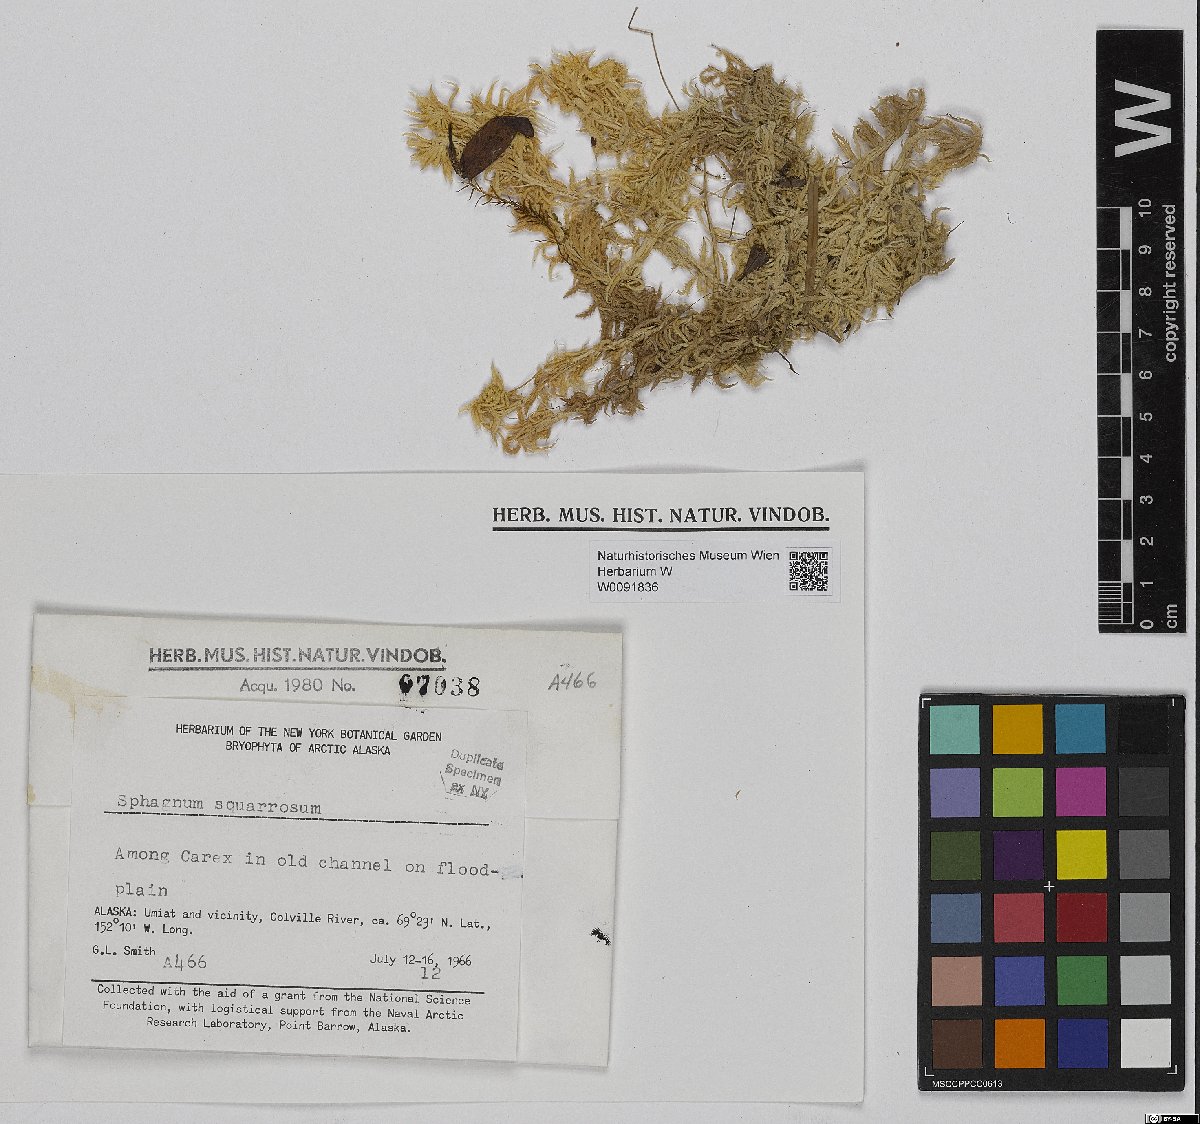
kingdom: Plantae
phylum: Bryophyta
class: Sphagnopsida
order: Sphagnales
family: Sphagnaceae
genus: Sphagnum
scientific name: Sphagnum squarrosum
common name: Shaggy peat moss
